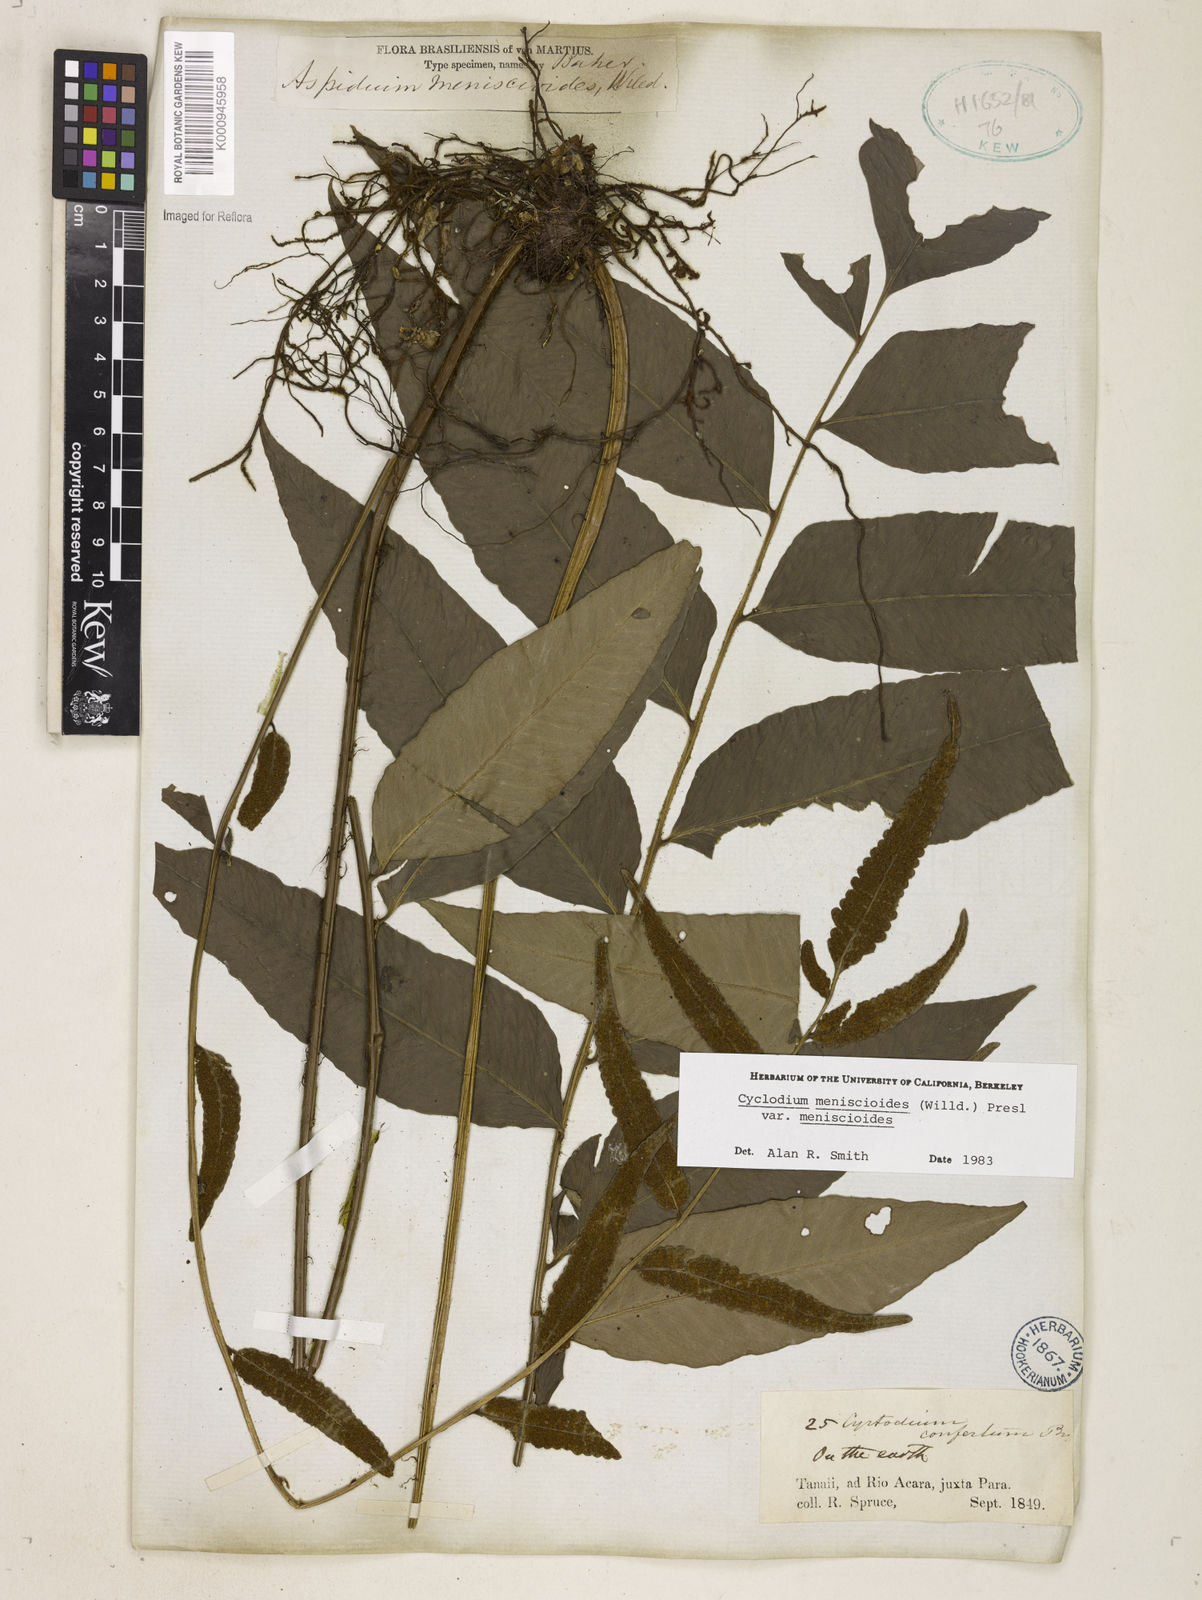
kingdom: Plantae
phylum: Tracheophyta
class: Polypodiopsida
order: Polypodiales
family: Dryopteridaceae
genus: Cyclodium
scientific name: Cyclodium meniscioides
